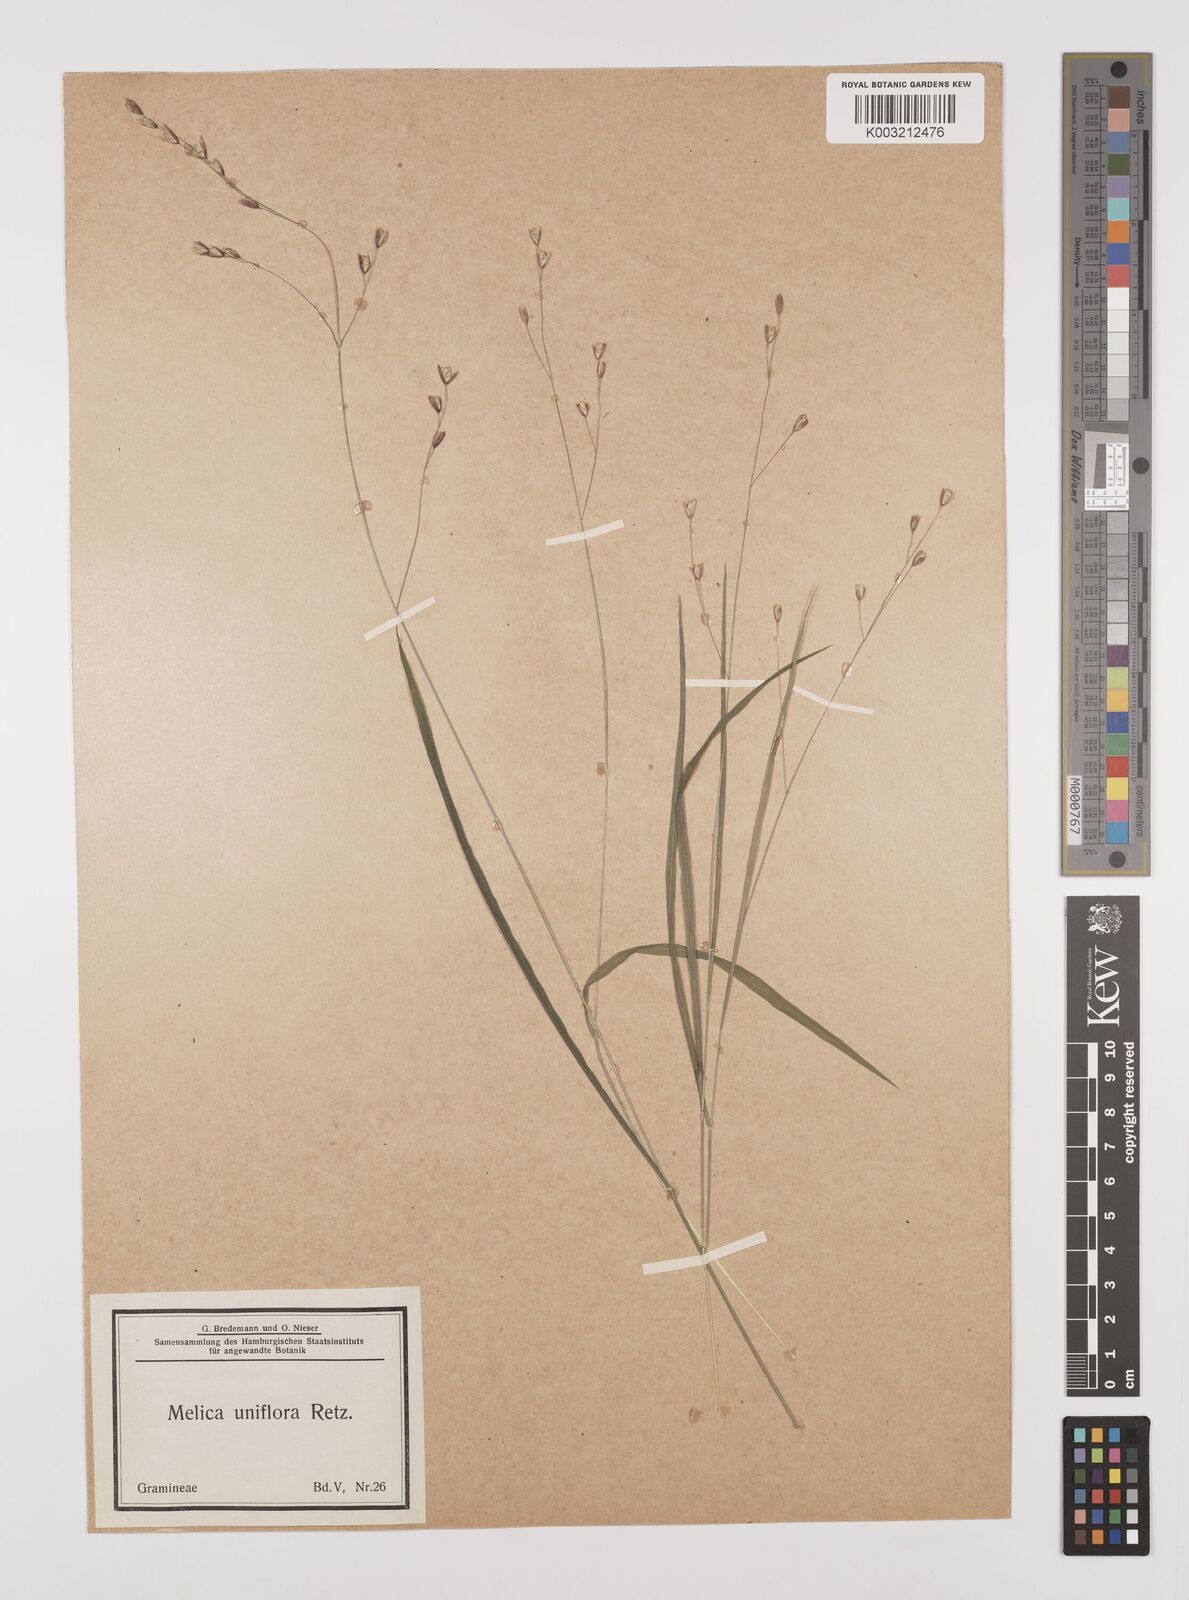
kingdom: Plantae
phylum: Tracheophyta
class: Liliopsida
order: Poales
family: Poaceae
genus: Melica
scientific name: Melica uniflora
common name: Wood melick
